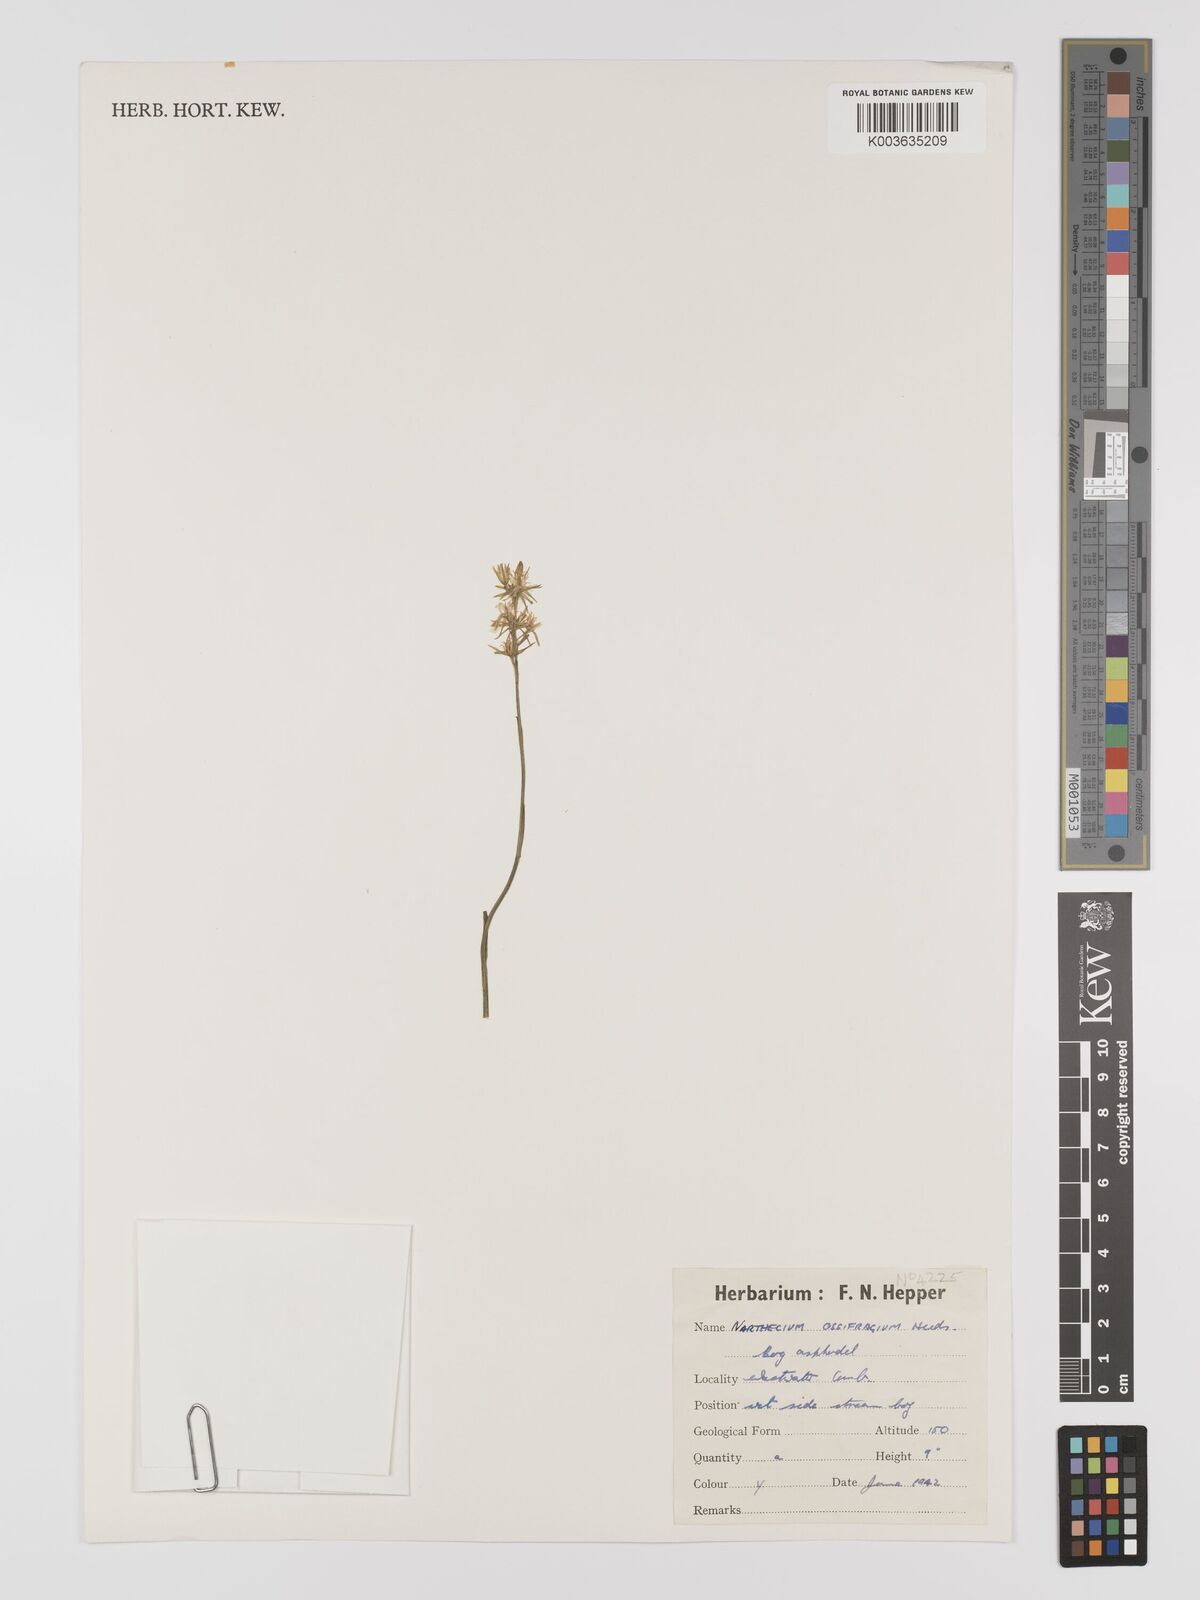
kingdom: Plantae
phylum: Tracheophyta
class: Liliopsida
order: Dioscoreales
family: Nartheciaceae
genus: Narthecium
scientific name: Narthecium
